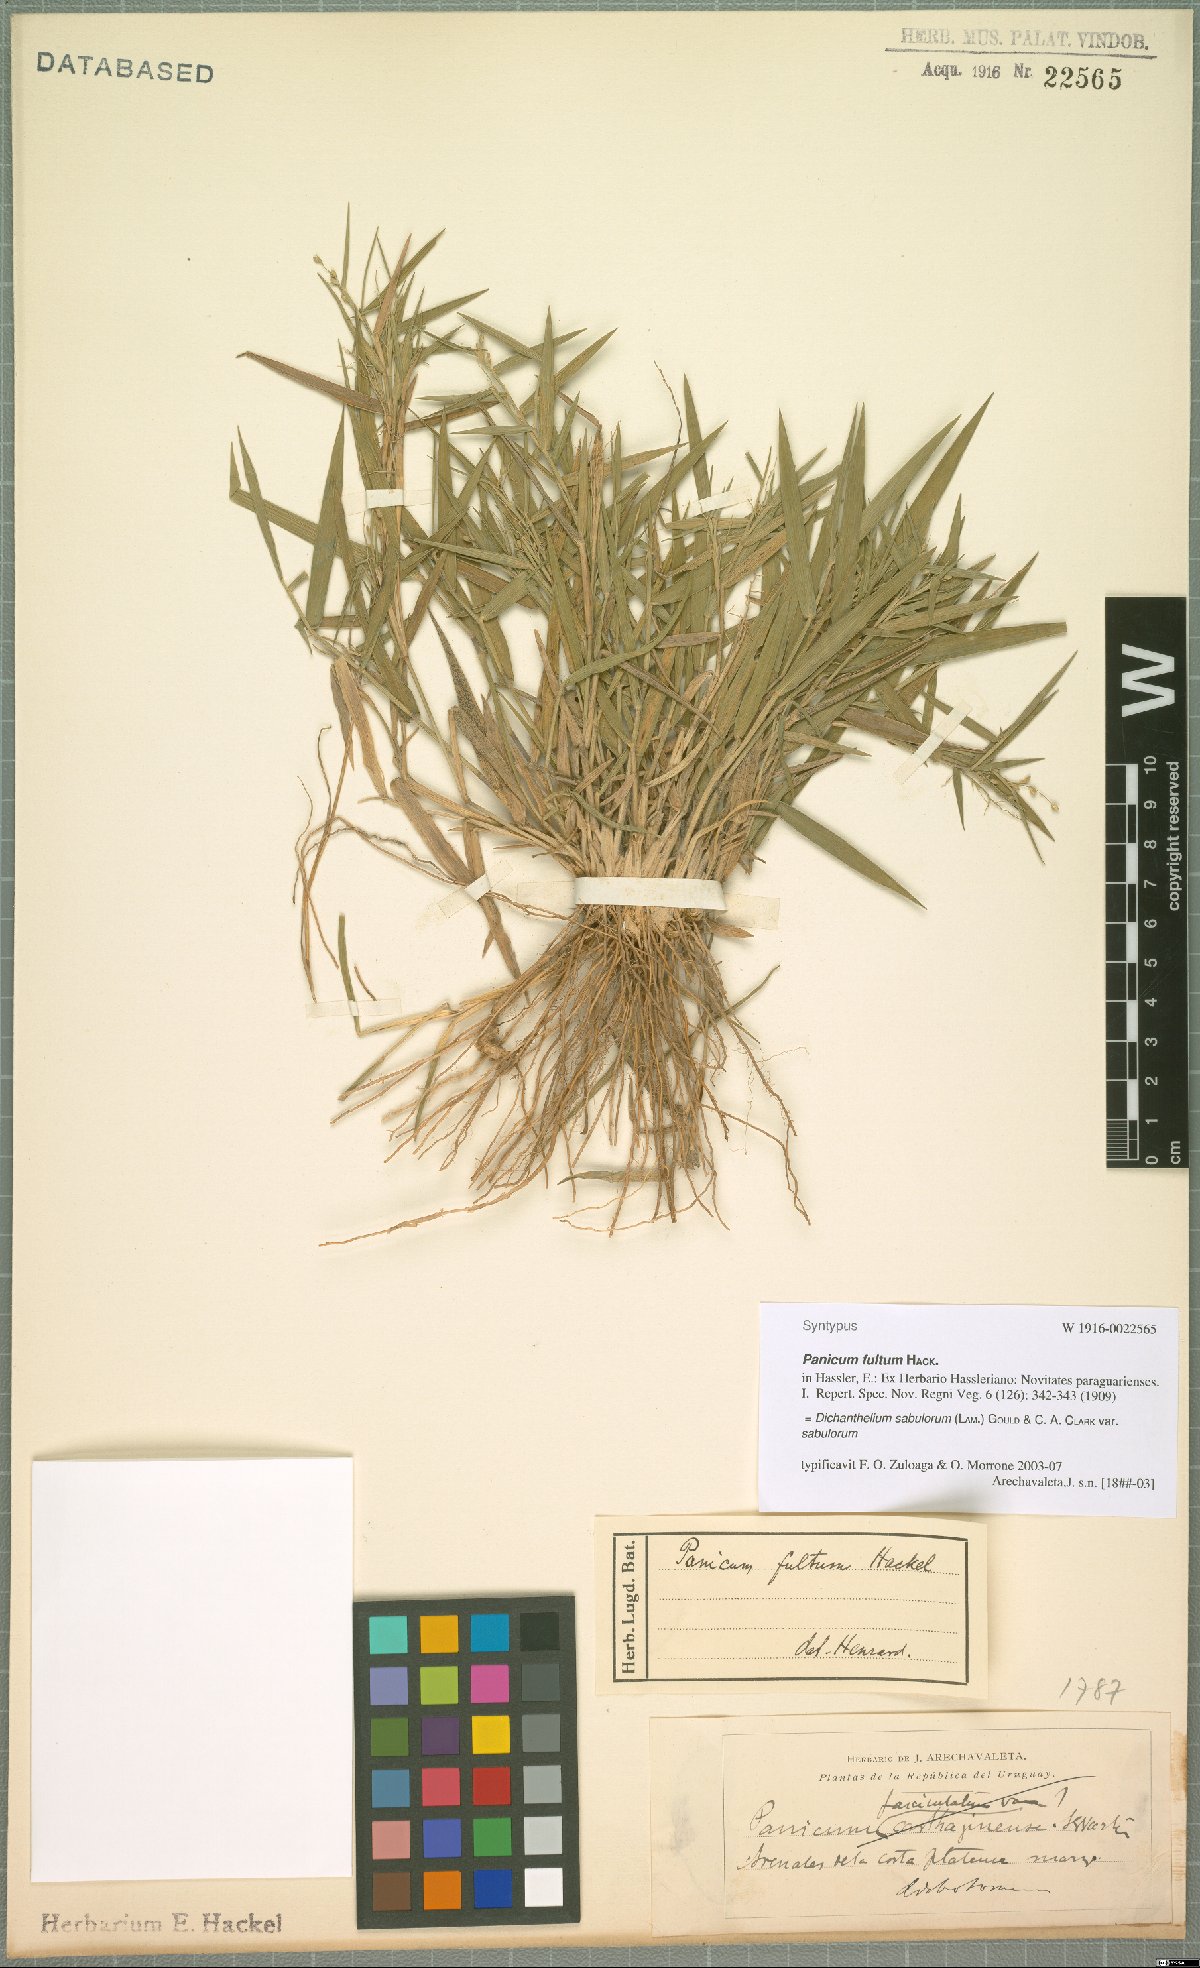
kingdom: Plantae
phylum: Tracheophyta
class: Liliopsida
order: Poales
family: Poaceae
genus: Dichanthelium
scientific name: Dichanthelium sabulorum
